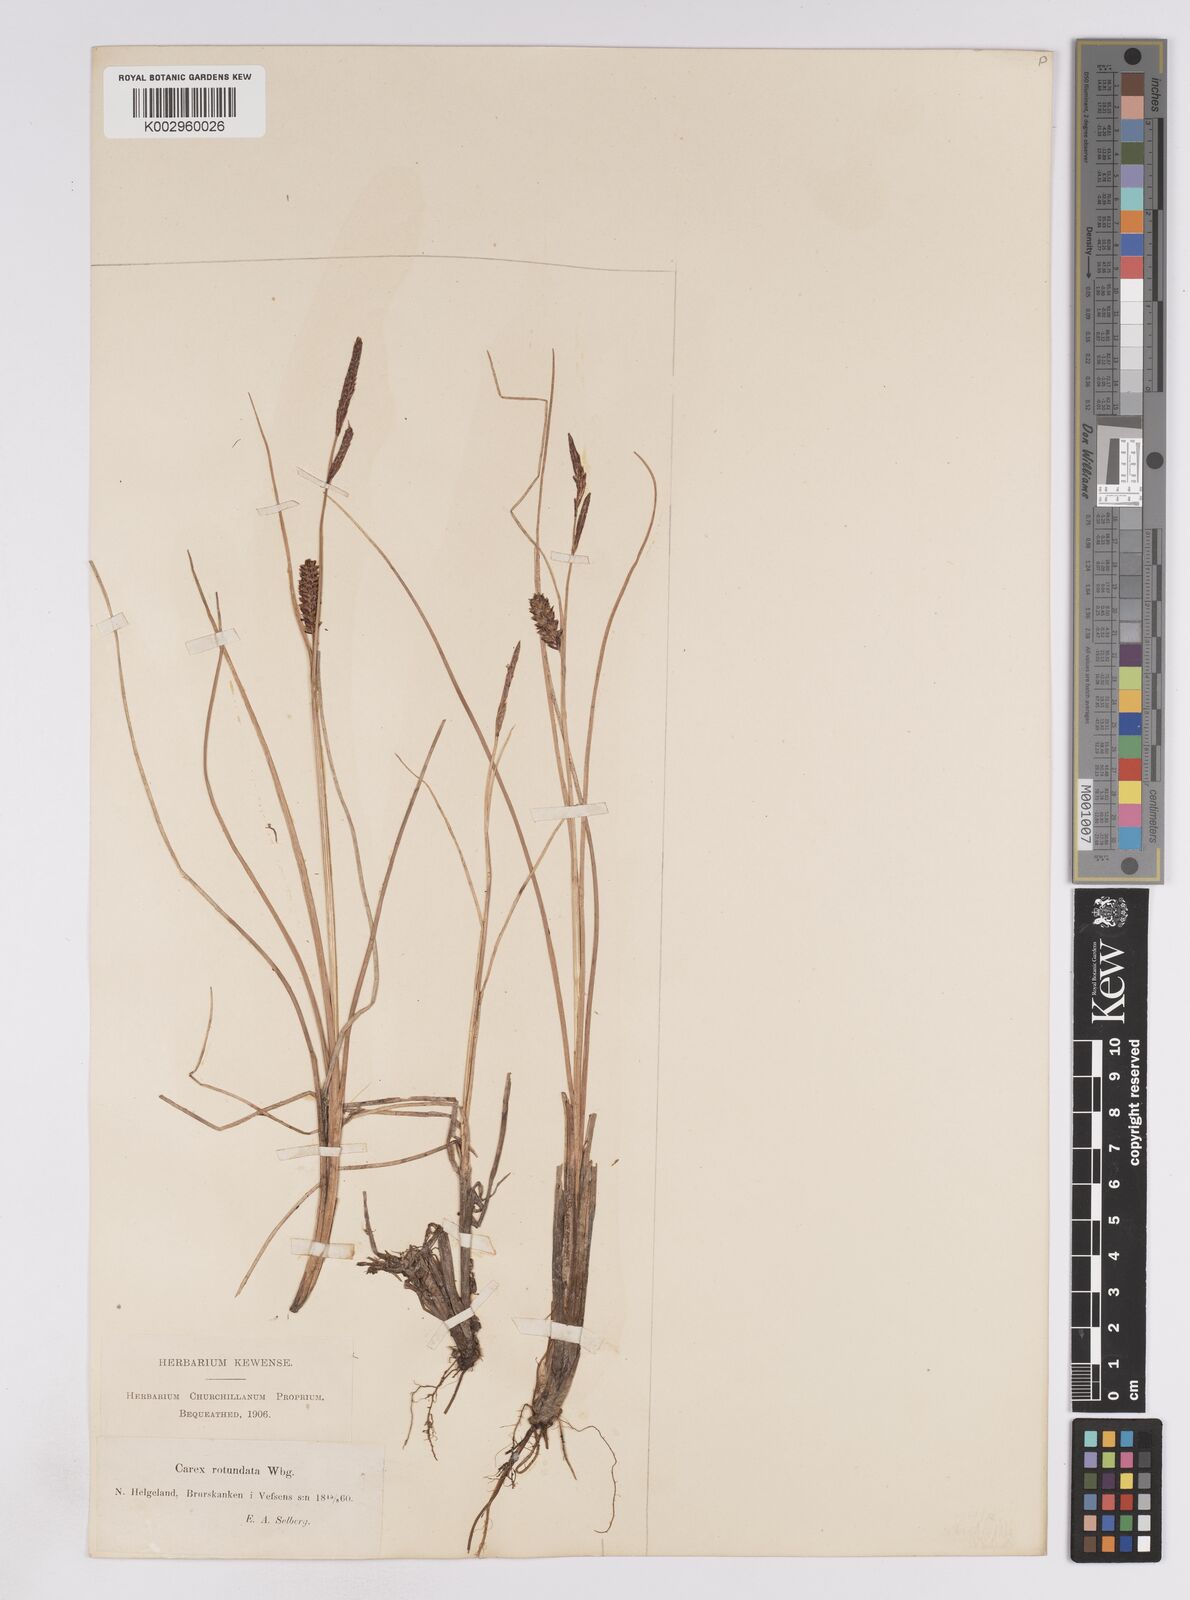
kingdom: Plantae
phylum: Tracheophyta
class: Liliopsida
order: Poales
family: Cyperaceae
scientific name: Cyperaceae
